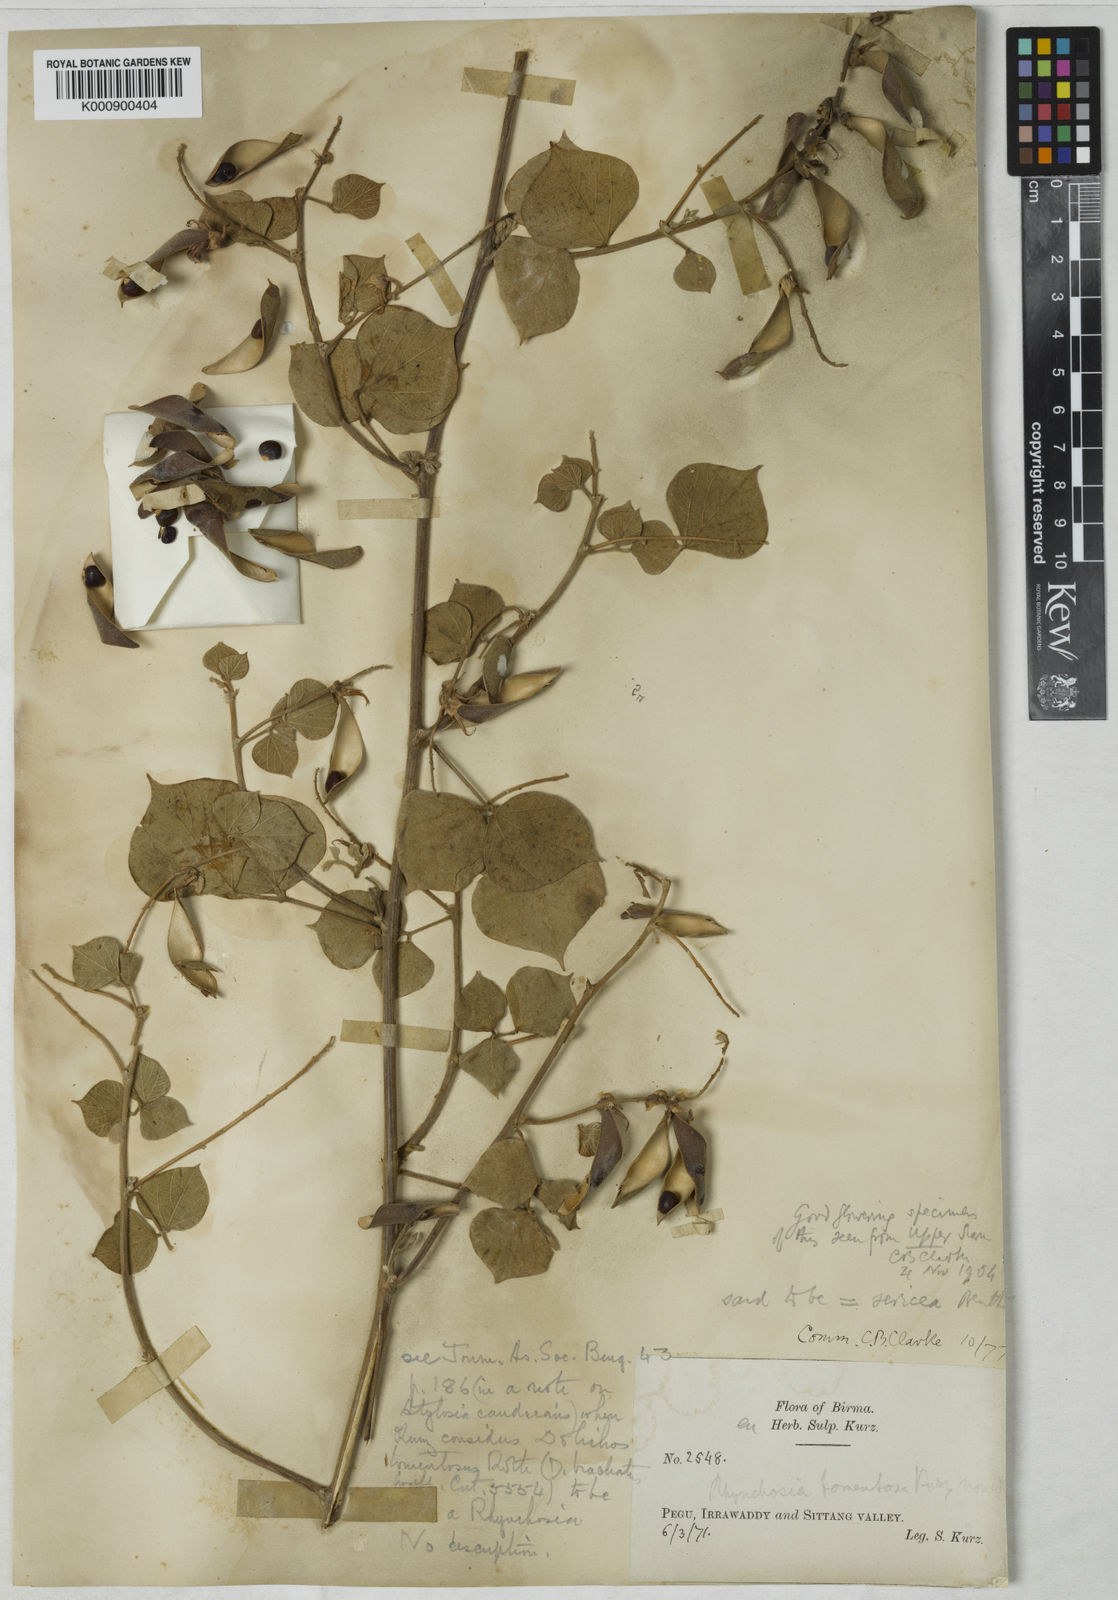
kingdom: Plantae
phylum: Tracheophyta
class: Magnoliopsida
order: Fabales
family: Fabaceae
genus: Rhynchosia
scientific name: Rhynchosia bracteata
